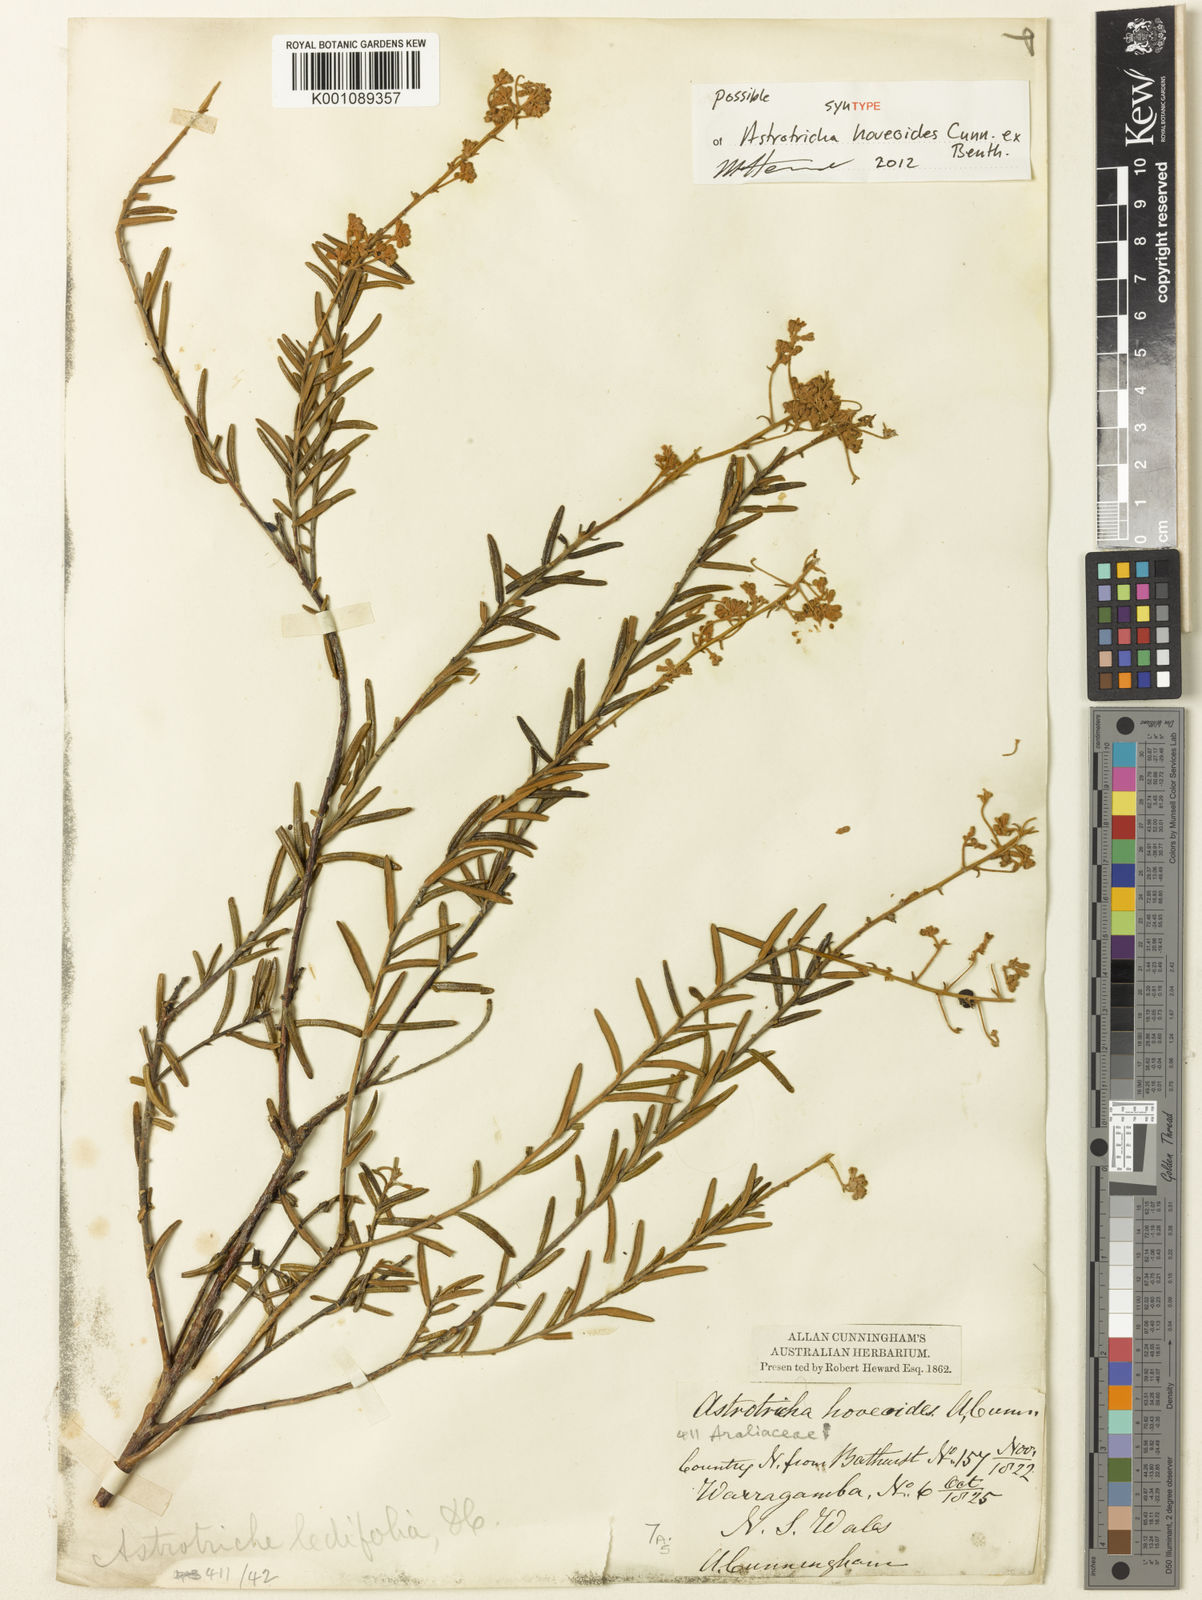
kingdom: Plantae
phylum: Tracheophyta
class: Magnoliopsida
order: Apiales
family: Araliaceae
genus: Astrotricha
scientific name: Astrotricha ledifolia
